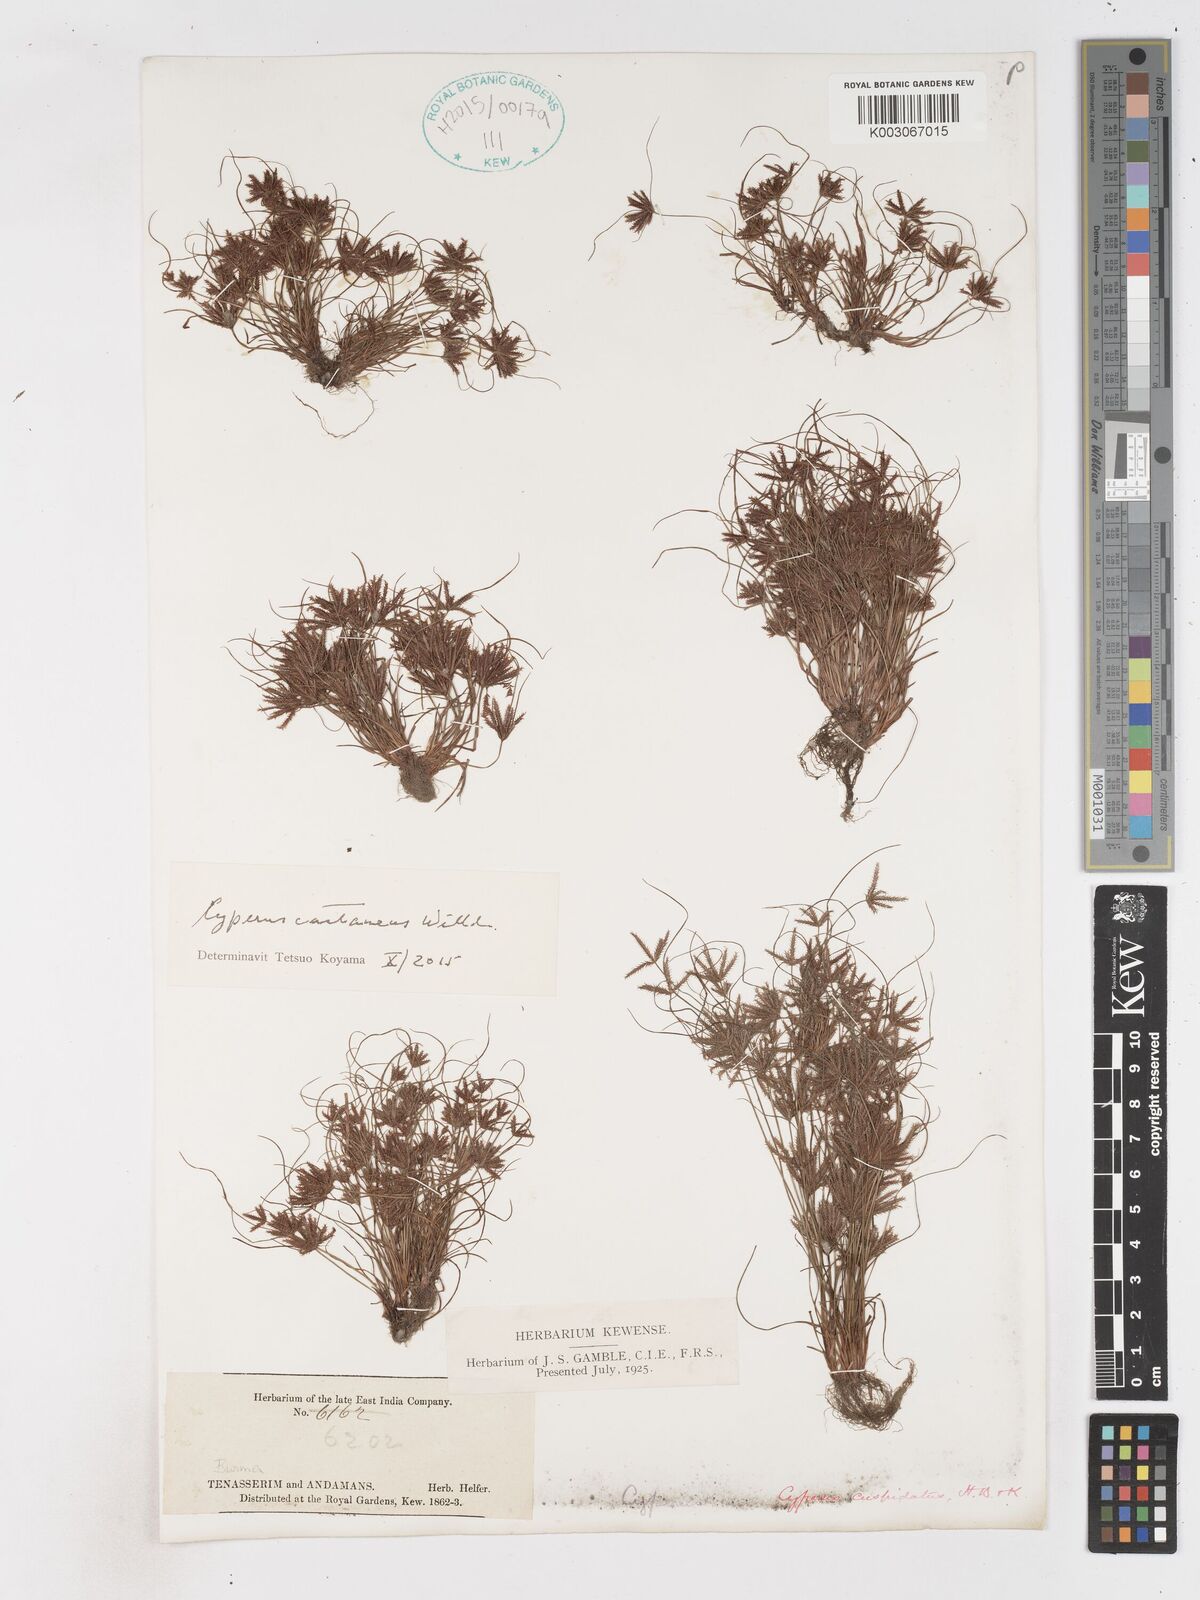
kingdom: Plantae
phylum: Tracheophyta
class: Liliopsida
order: Poales
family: Cyperaceae
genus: Cyperus
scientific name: Cyperus castaneus
